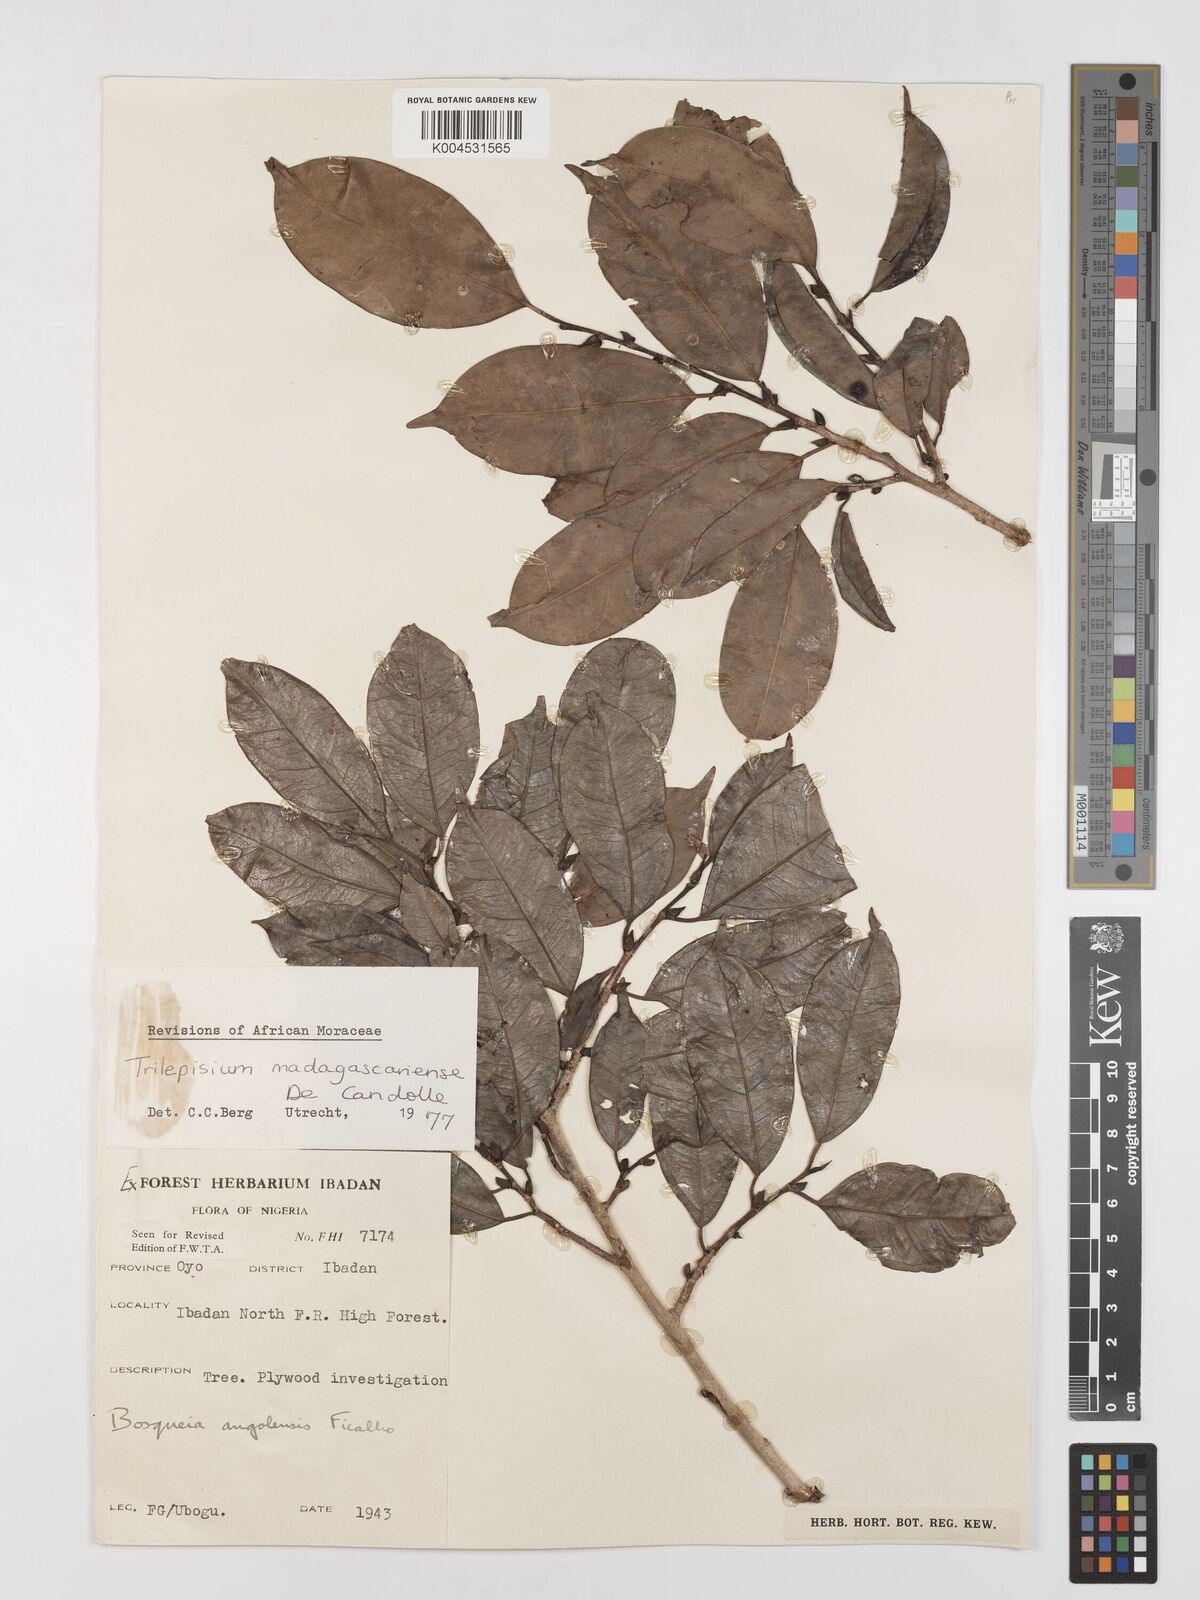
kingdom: Plantae
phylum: Tracheophyta
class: Magnoliopsida
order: Rosales
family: Moraceae
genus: Trilepisium
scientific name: Trilepisium madagascariense
